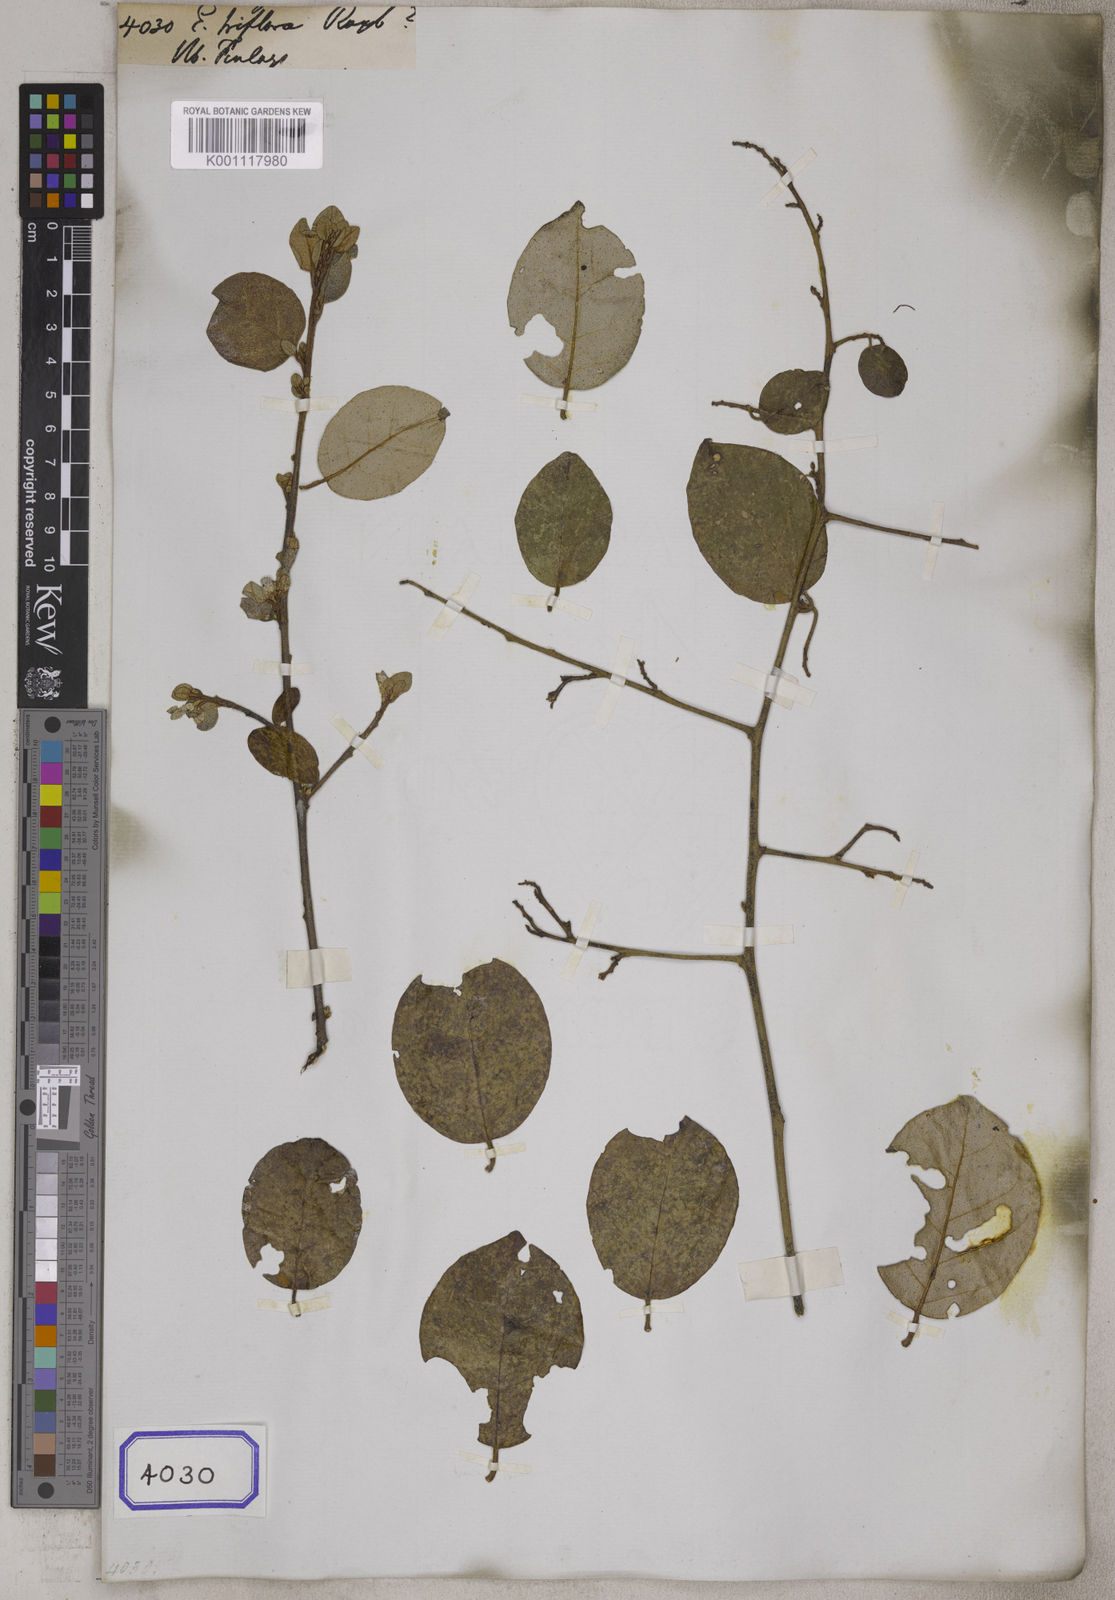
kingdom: Plantae
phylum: Tracheophyta
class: Magnoliopsida
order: Rosales
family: Elaeagnaceae
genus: Elaeagnus
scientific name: Elaeagnus triflora
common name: Millaa millaa-vine
